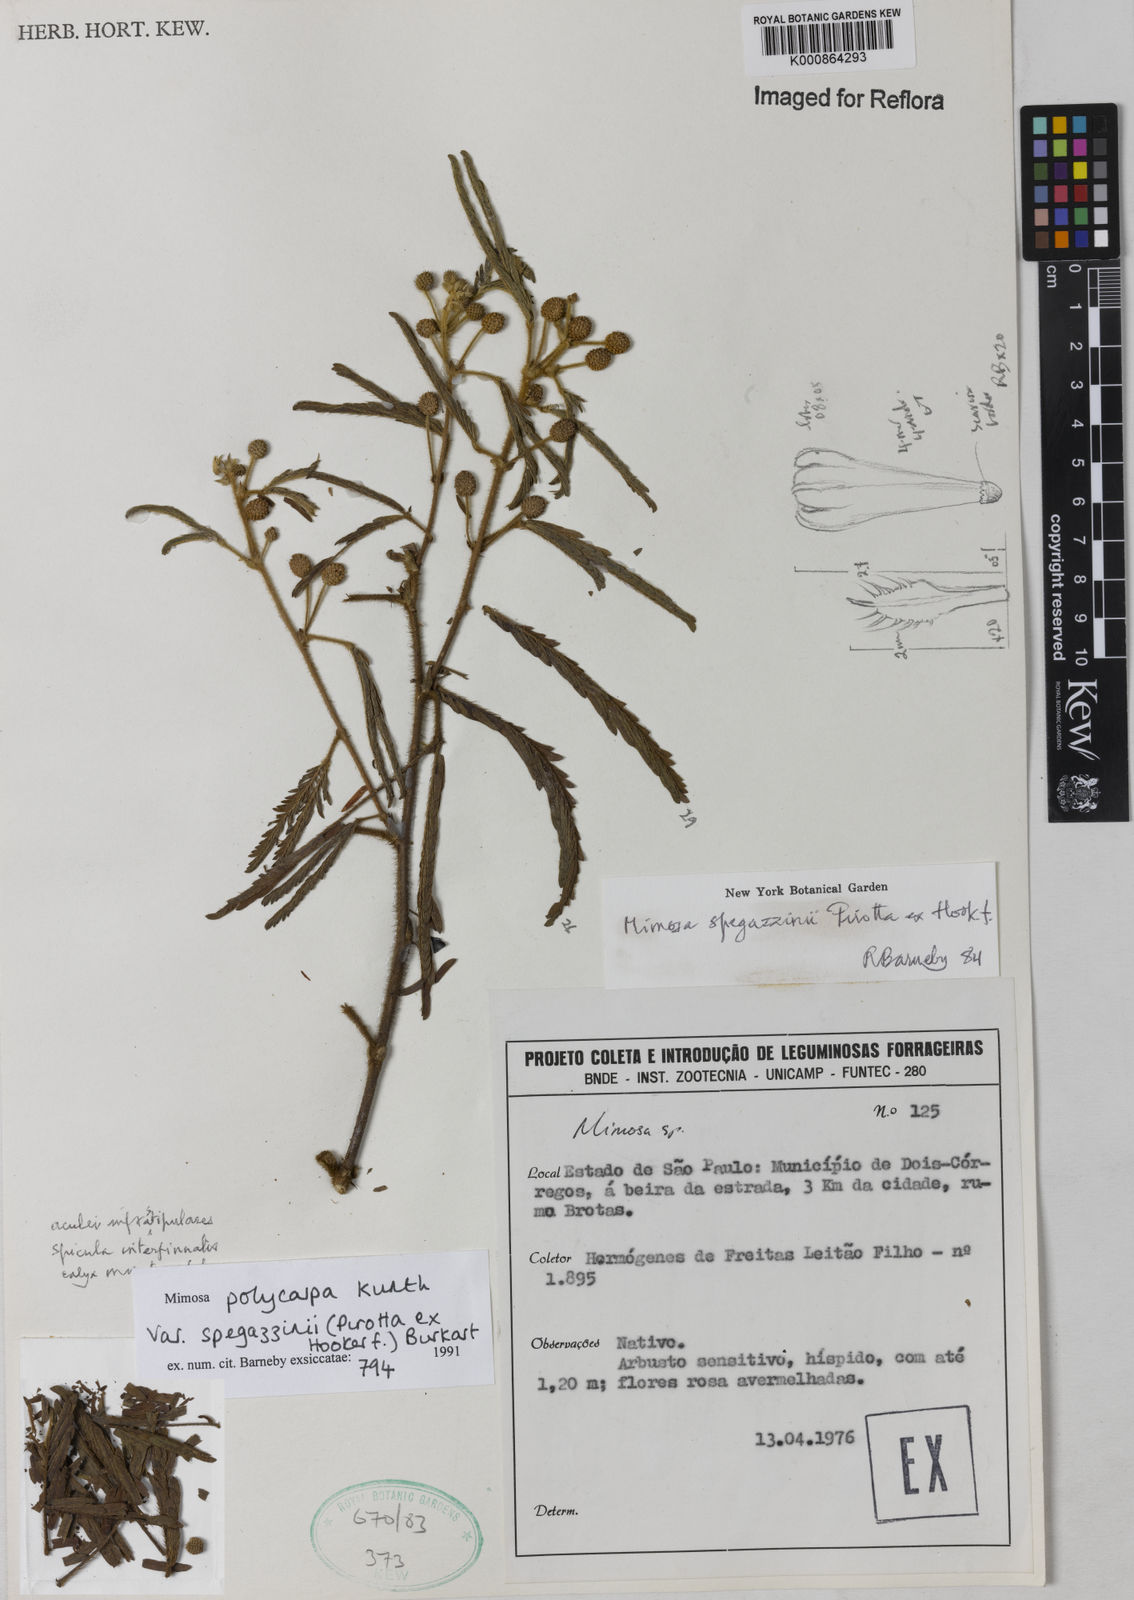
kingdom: Plantae
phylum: Tracheophyta
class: Magnoliopsida
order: Fabales
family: Fabaceae
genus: Mimosa
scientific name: Mimosa polycarpa
